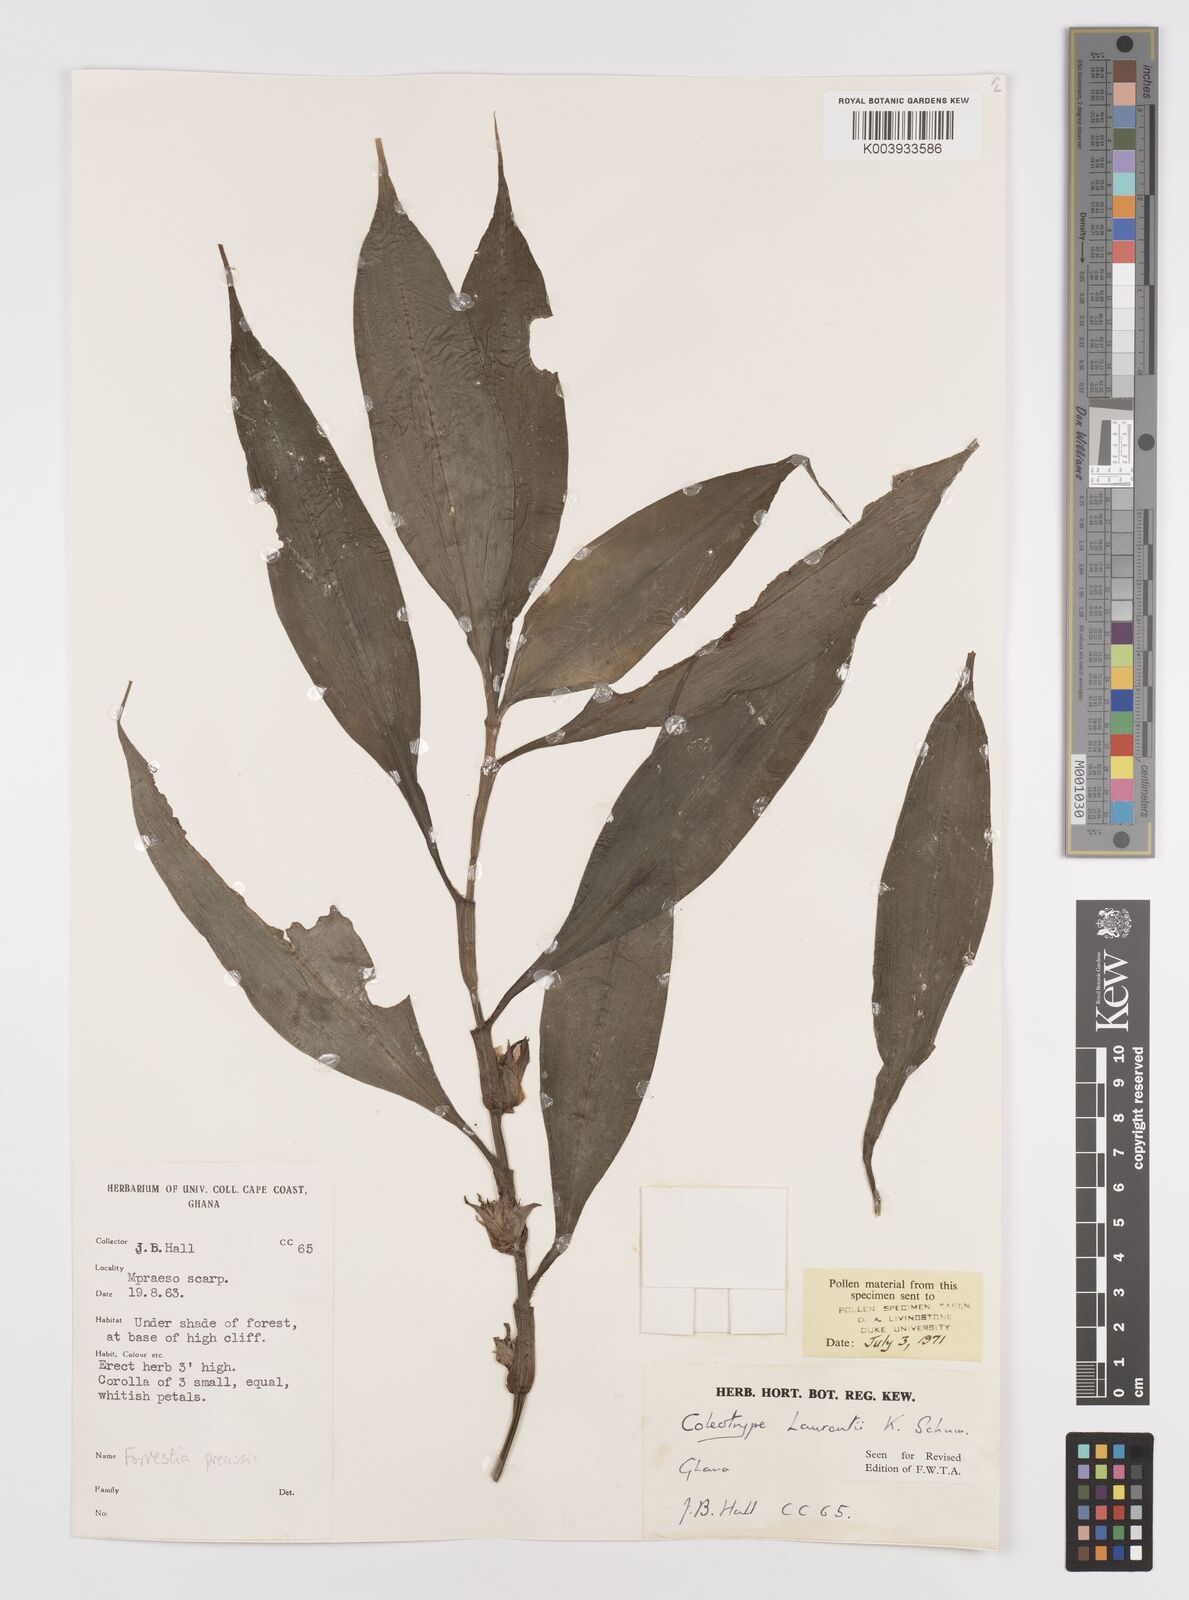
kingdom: Plantae
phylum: Tracheophyta
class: Liliopsida
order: Commelinales
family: Commelinaceae
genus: Coleotrype
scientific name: Coleotrype laurentii
